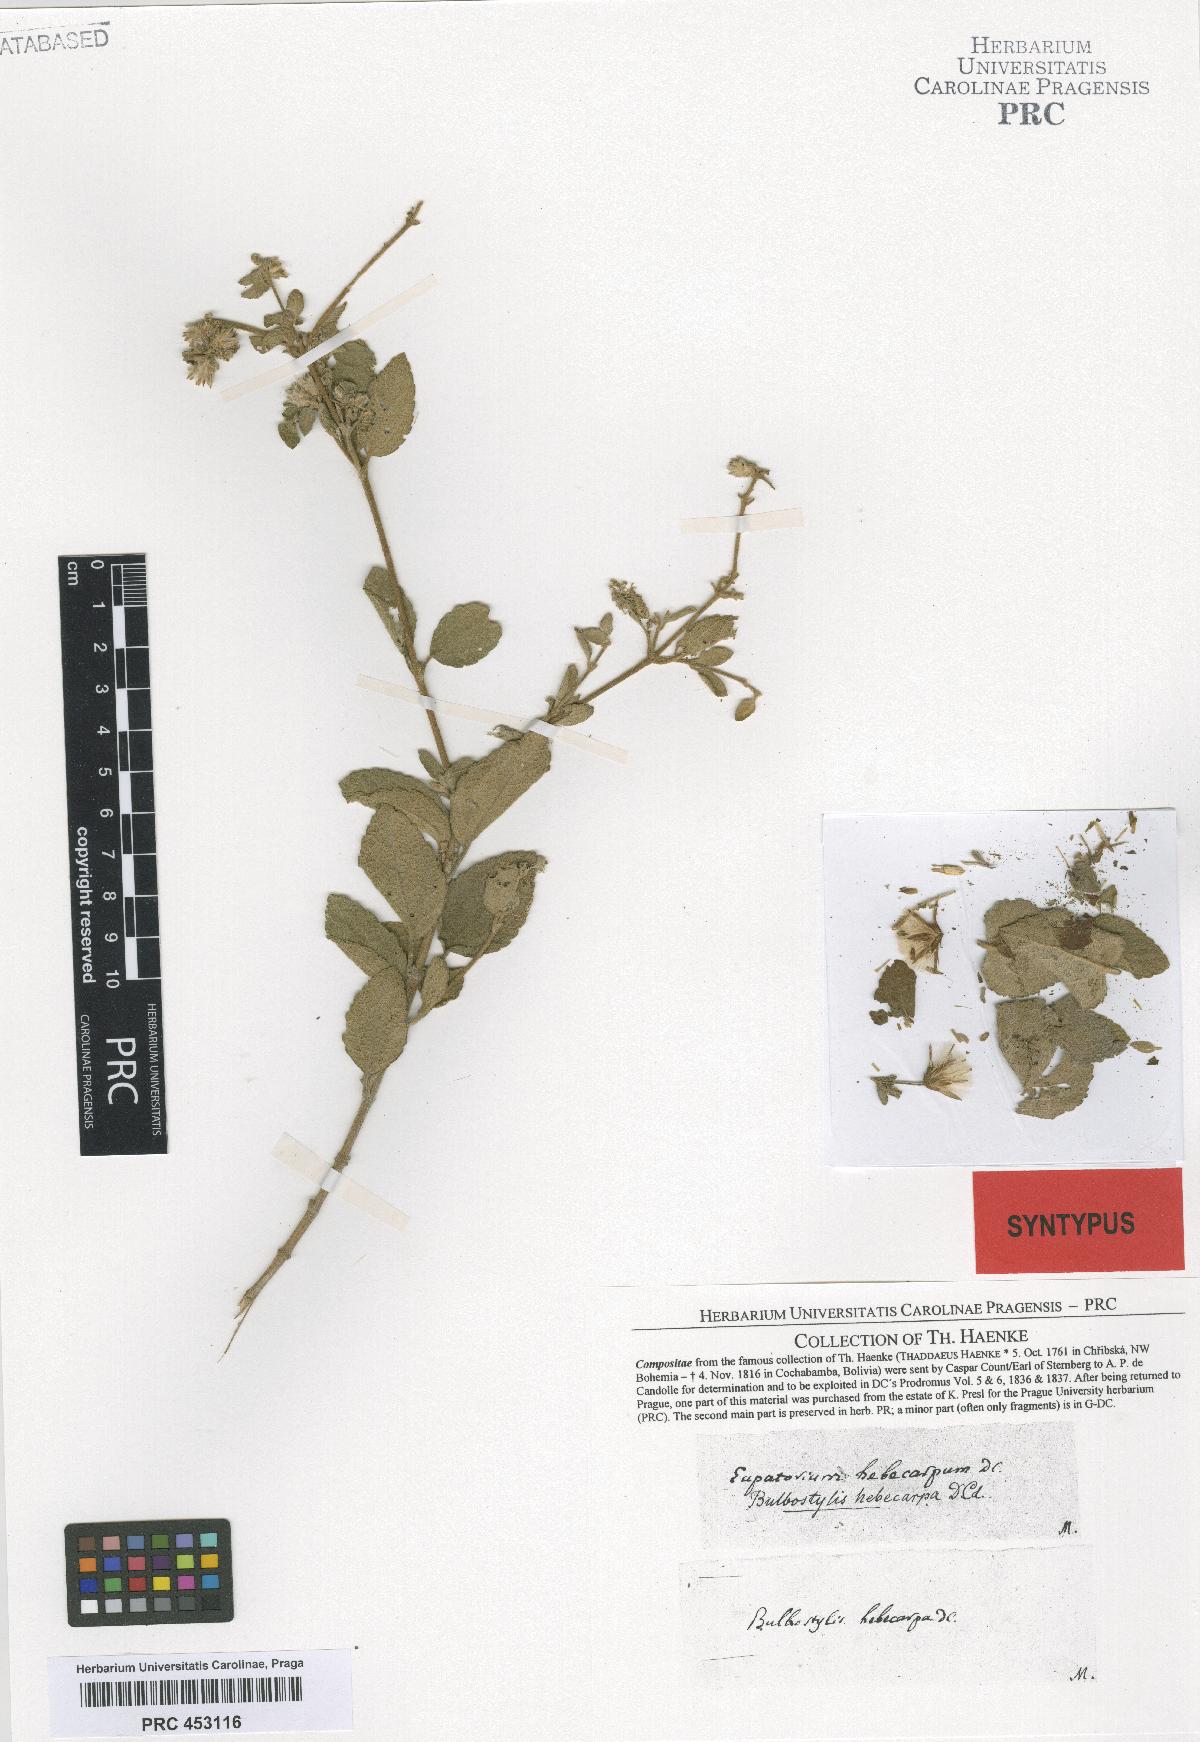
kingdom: Plantae
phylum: Tracheophyta
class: Magnoliopsida
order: Asterales
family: Asteraceae
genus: Brickellia
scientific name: Brickellia paniculata
